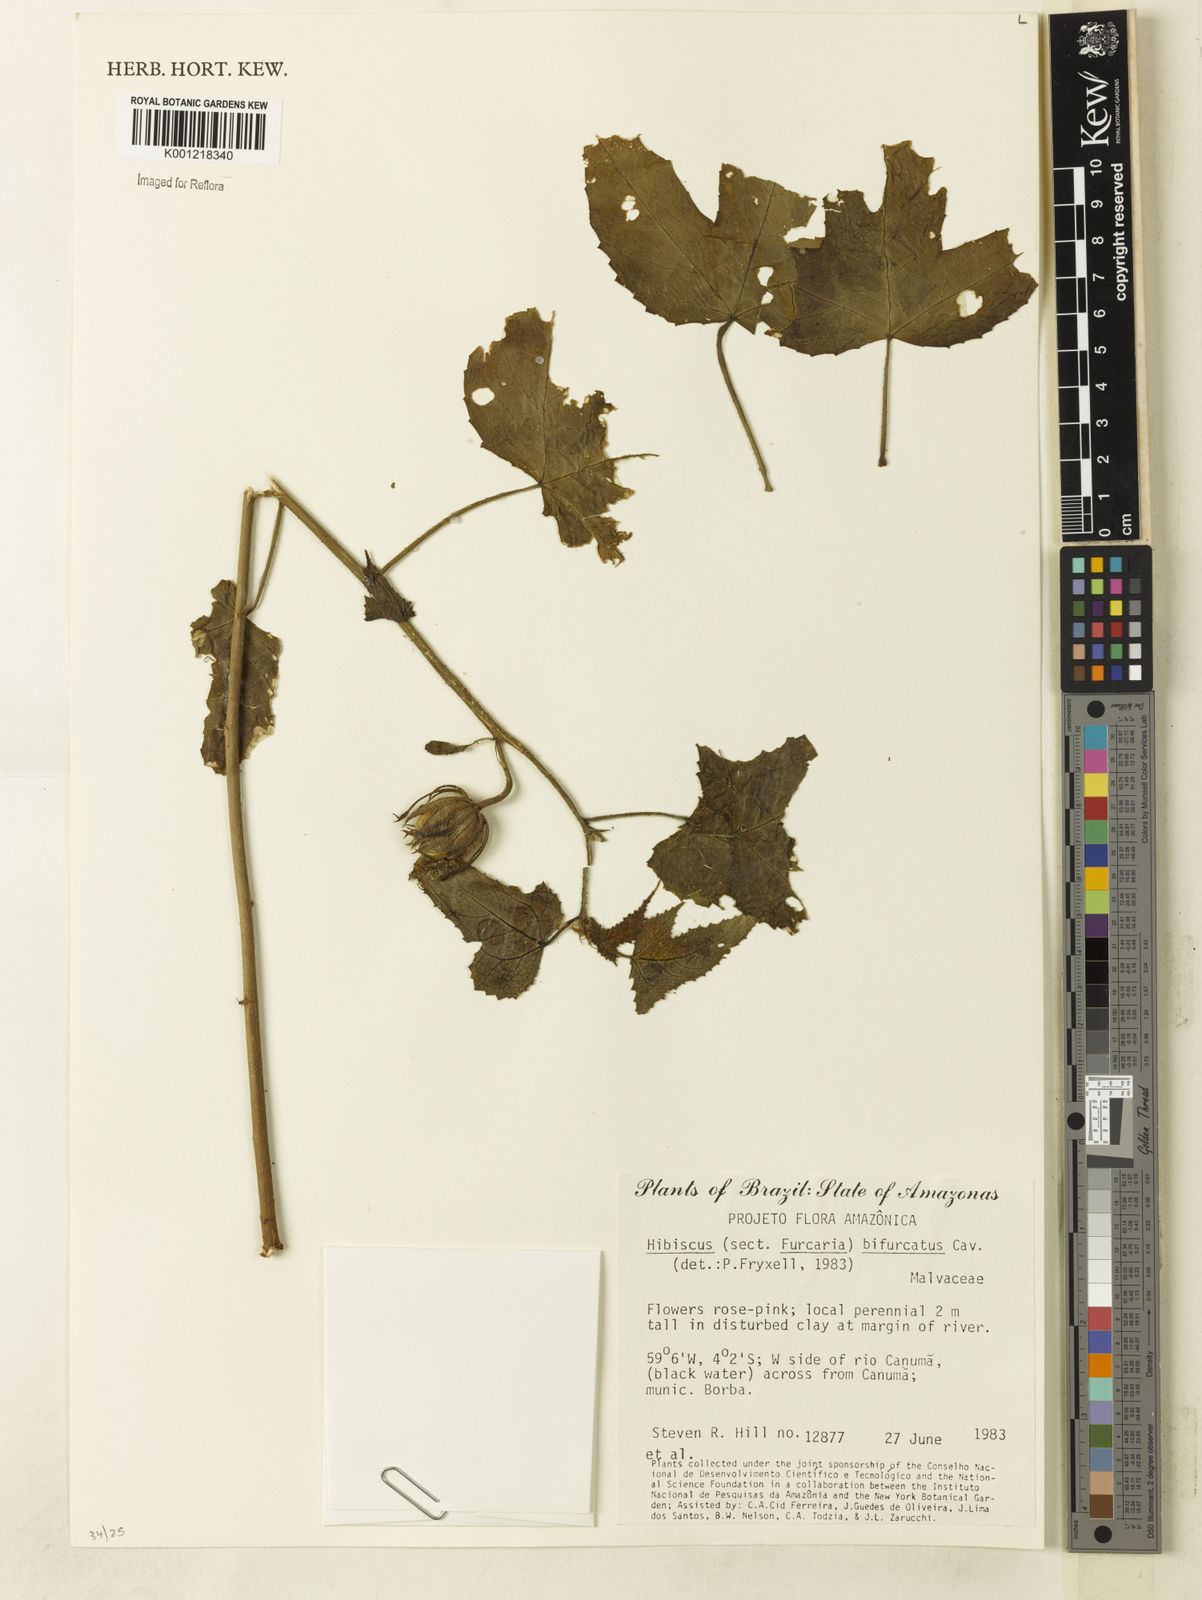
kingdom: Plantae
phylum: Tracheophyta
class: Magnoliopsida
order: Malvales
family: Malvaceae
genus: Hibiscus
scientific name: Hibiscus bifurcatus
